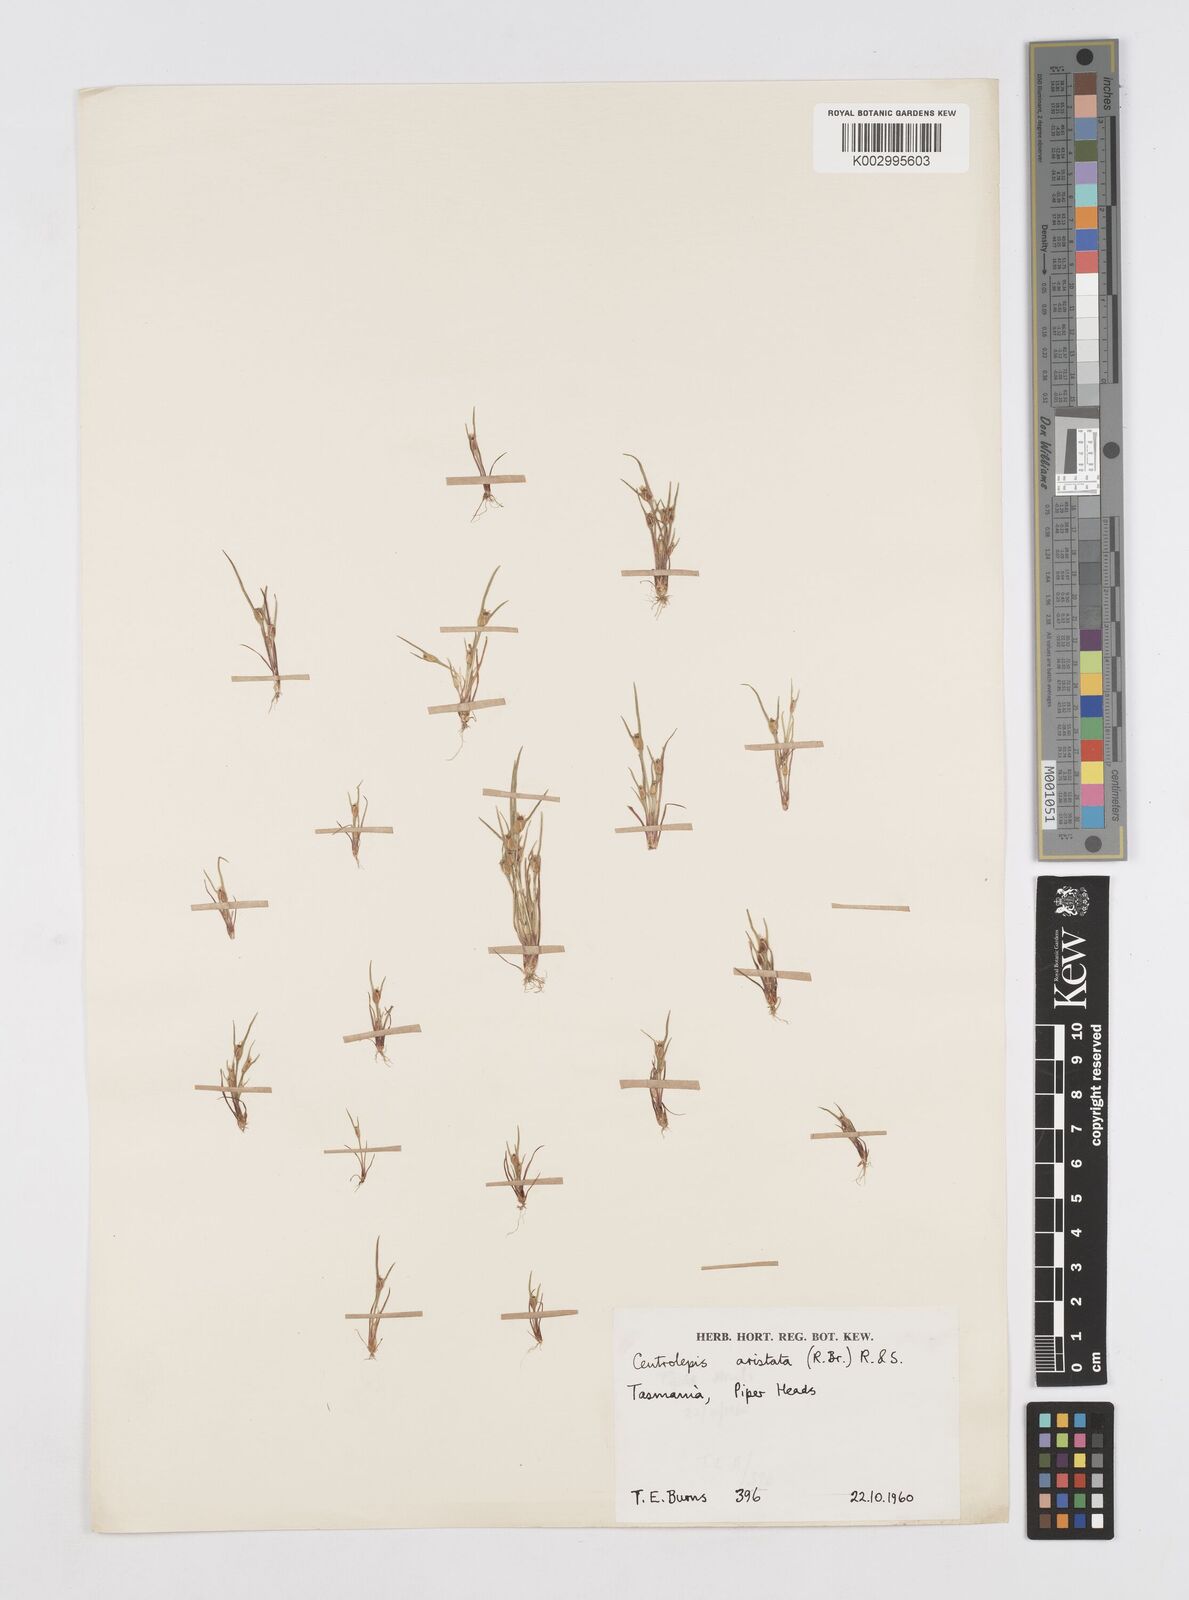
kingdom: Plantae
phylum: Tracheophyta
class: Liliopsida
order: Poales
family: Restionaceae
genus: Centrolepis
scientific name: Centrolepis aristata
